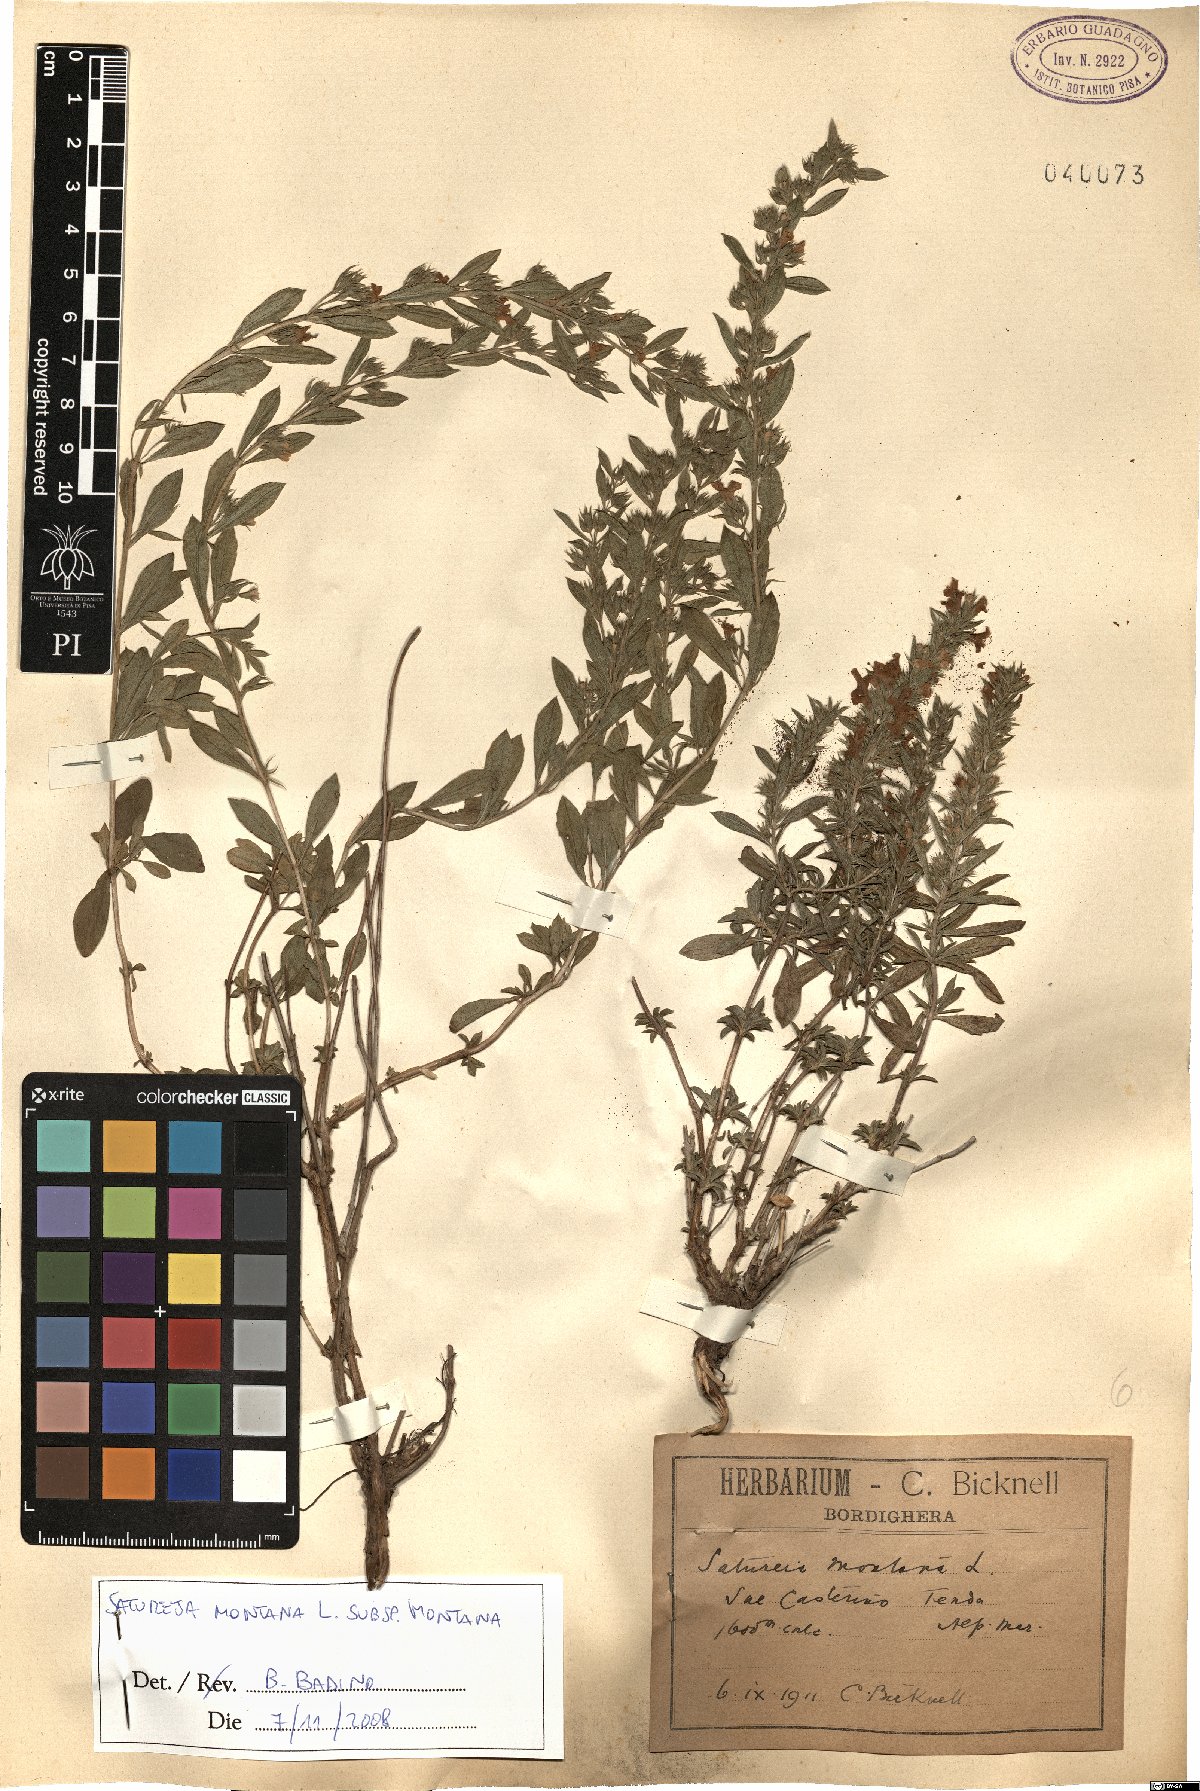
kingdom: Plantae
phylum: Tracheophyta
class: Magnoliopsida
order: Lamiales
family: Lamiaceae
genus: Satureja
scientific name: Satureja montana
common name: Winter savory
